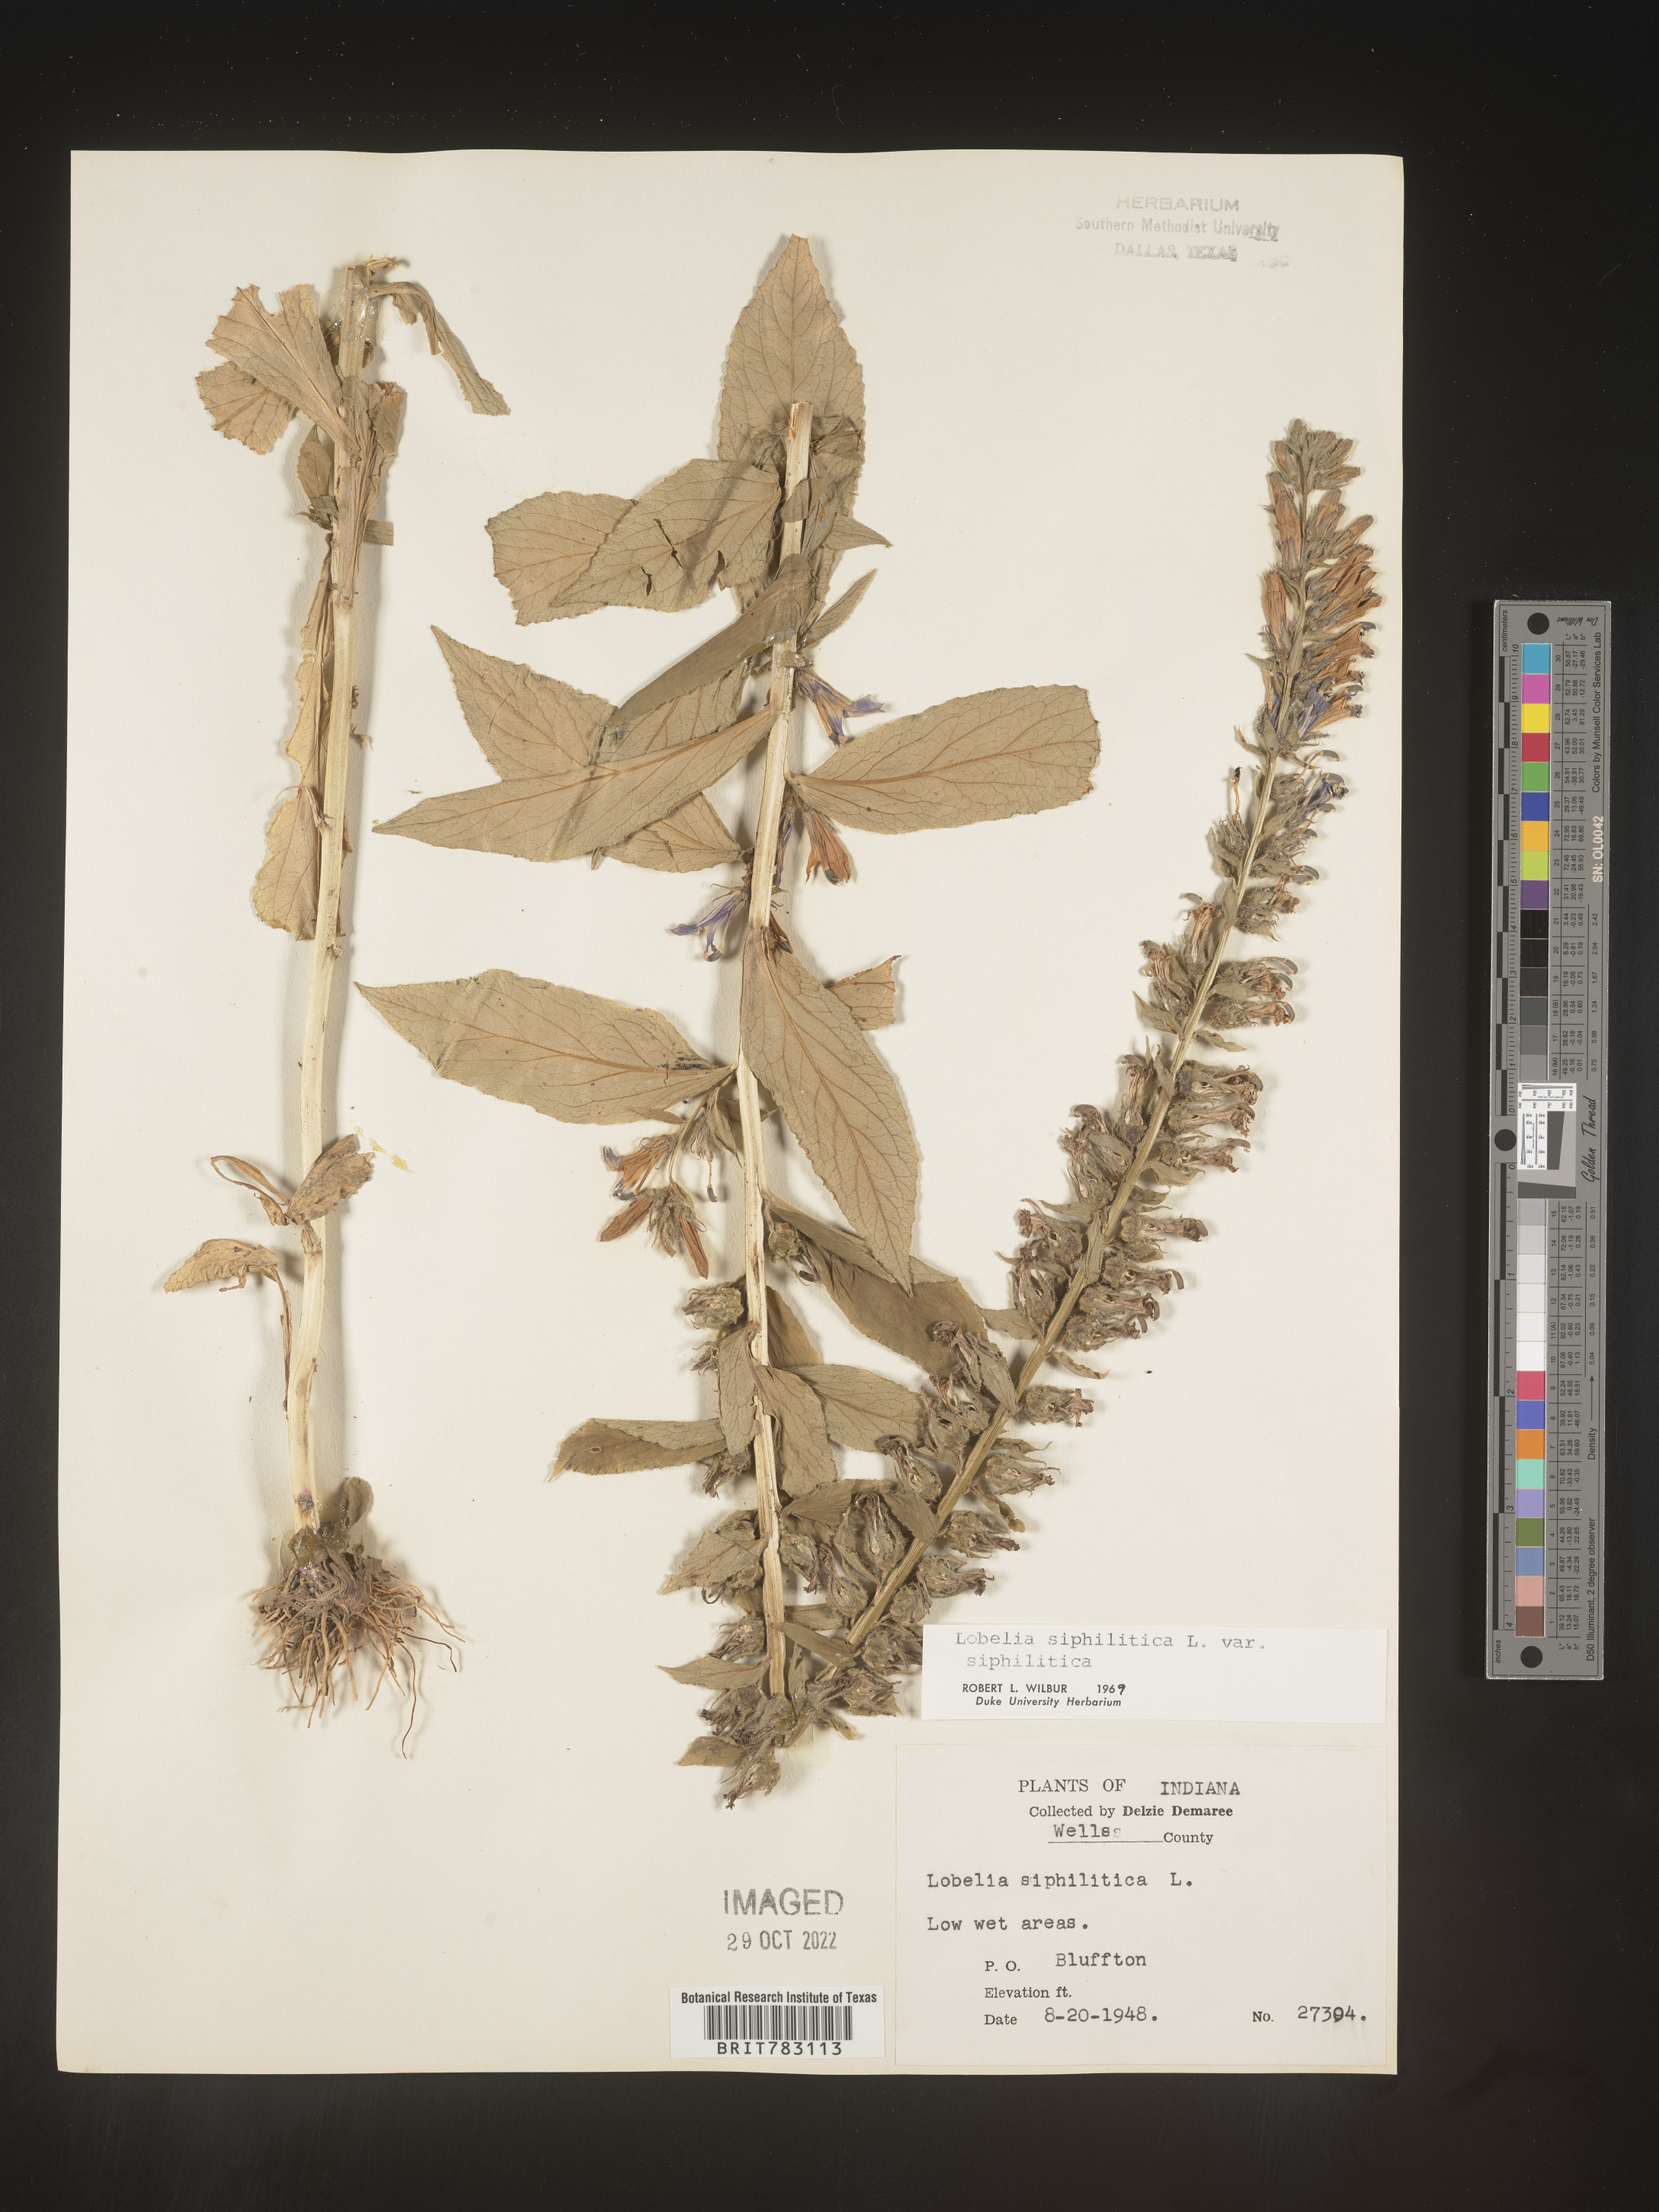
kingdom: Plantae
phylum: Tracheophyta
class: Magnoliopsida
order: Asterales
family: Campanulaceae
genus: Lobelia
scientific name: Lobelia siphilitica
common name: Great lobelia
